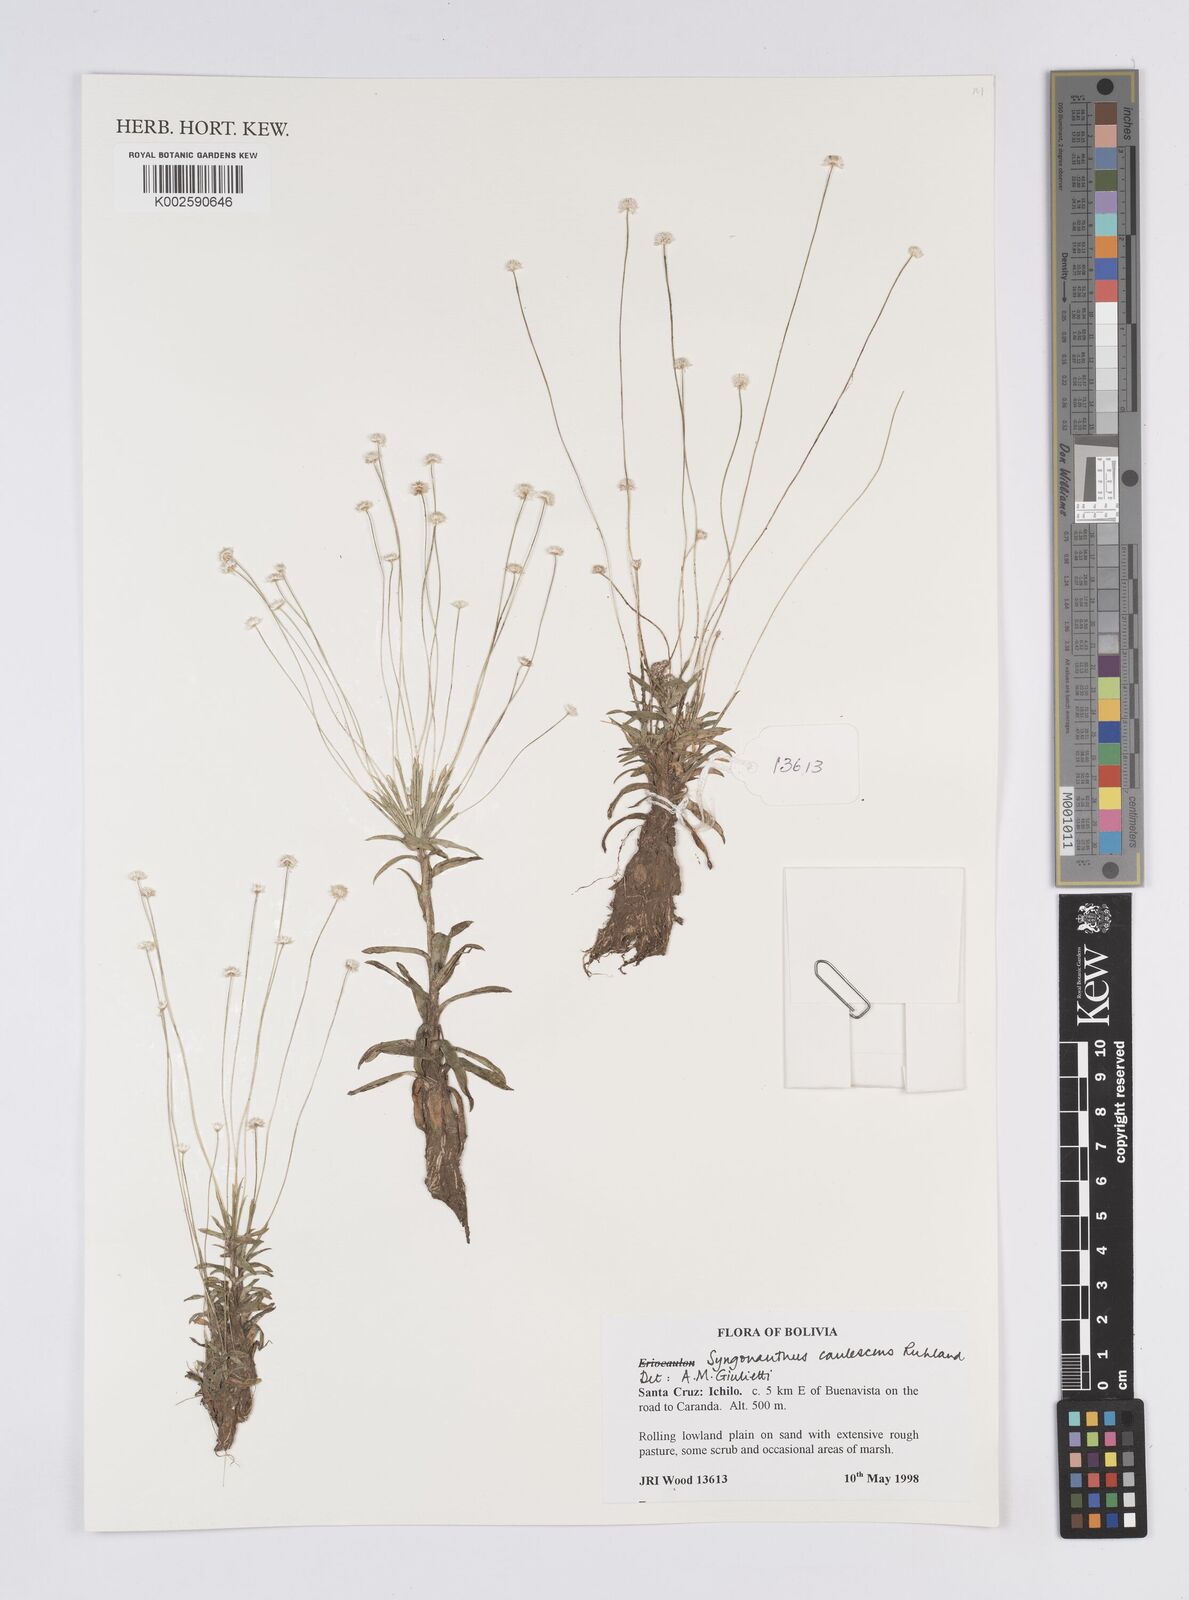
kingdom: Plantae
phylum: Tracheophyta
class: Liliopsida
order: Poales
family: Eriocaulaceae
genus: Syngonanthus
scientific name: Syngonanthus caulescens
